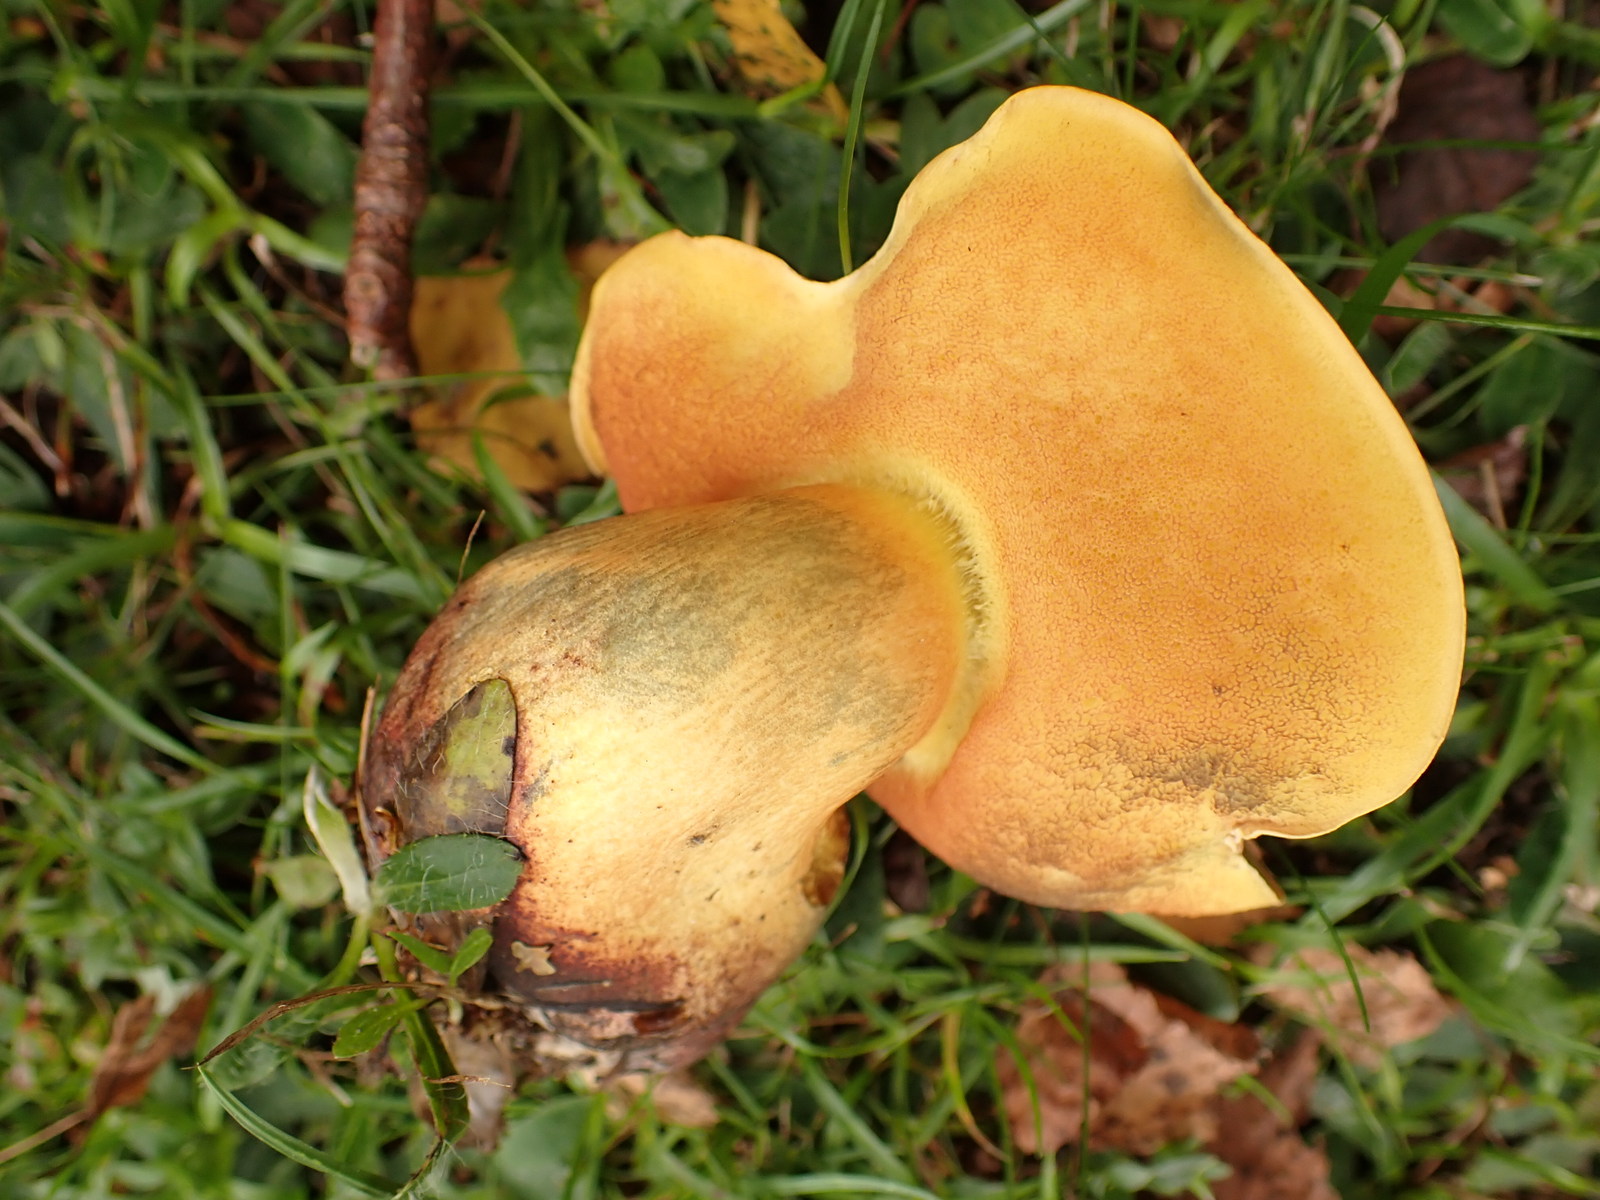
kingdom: Fungi
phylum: Basidiomycota
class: Agaricomycetes
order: Boletales
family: Boletaceae
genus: Suillellus
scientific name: Suillellus queletii
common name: glatstokket indigorørhat
